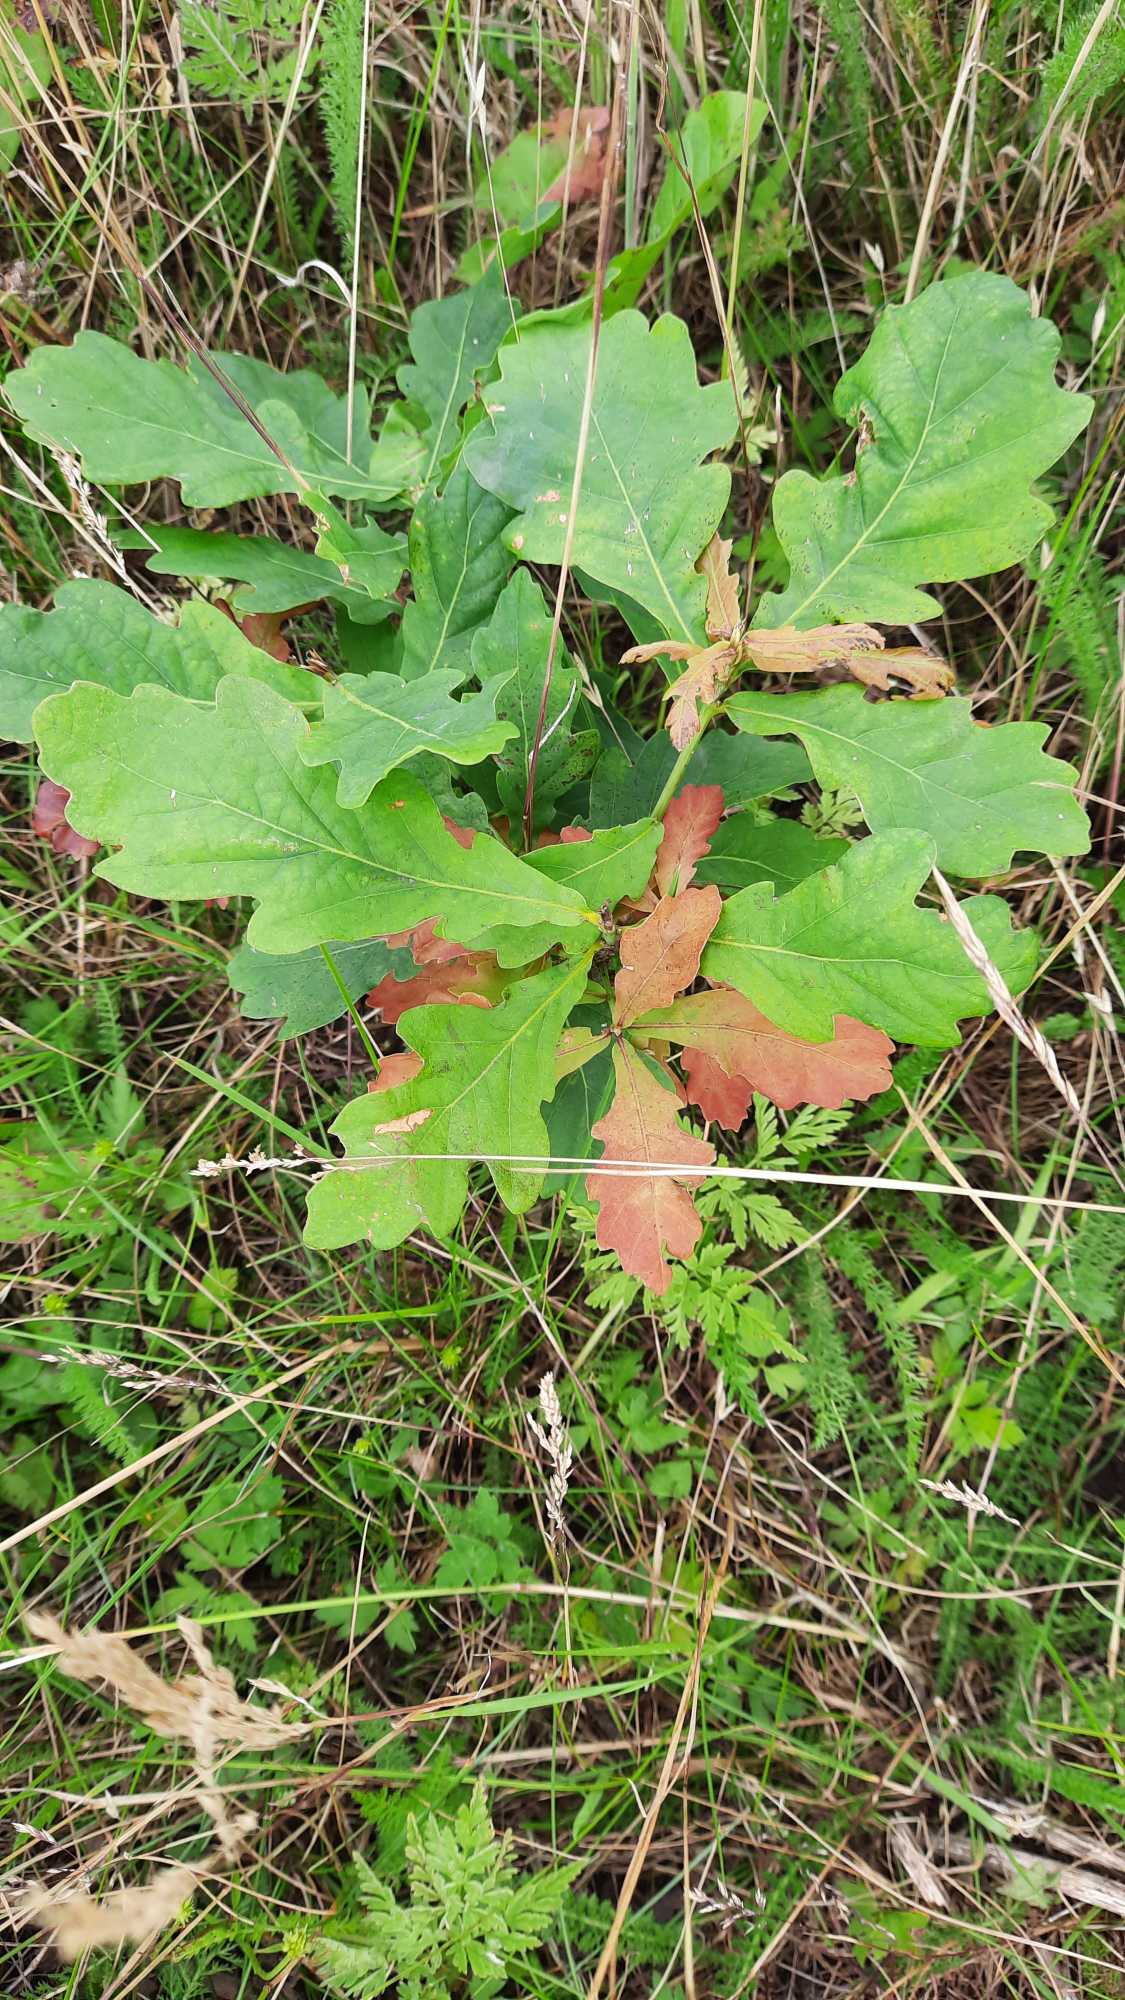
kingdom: Plantae
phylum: Tracheophyta
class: Magnoliopsida
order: Fagales
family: Fagaceae
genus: Quercus
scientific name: Quercus robur
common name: Stilk-eg/almindelig eg
